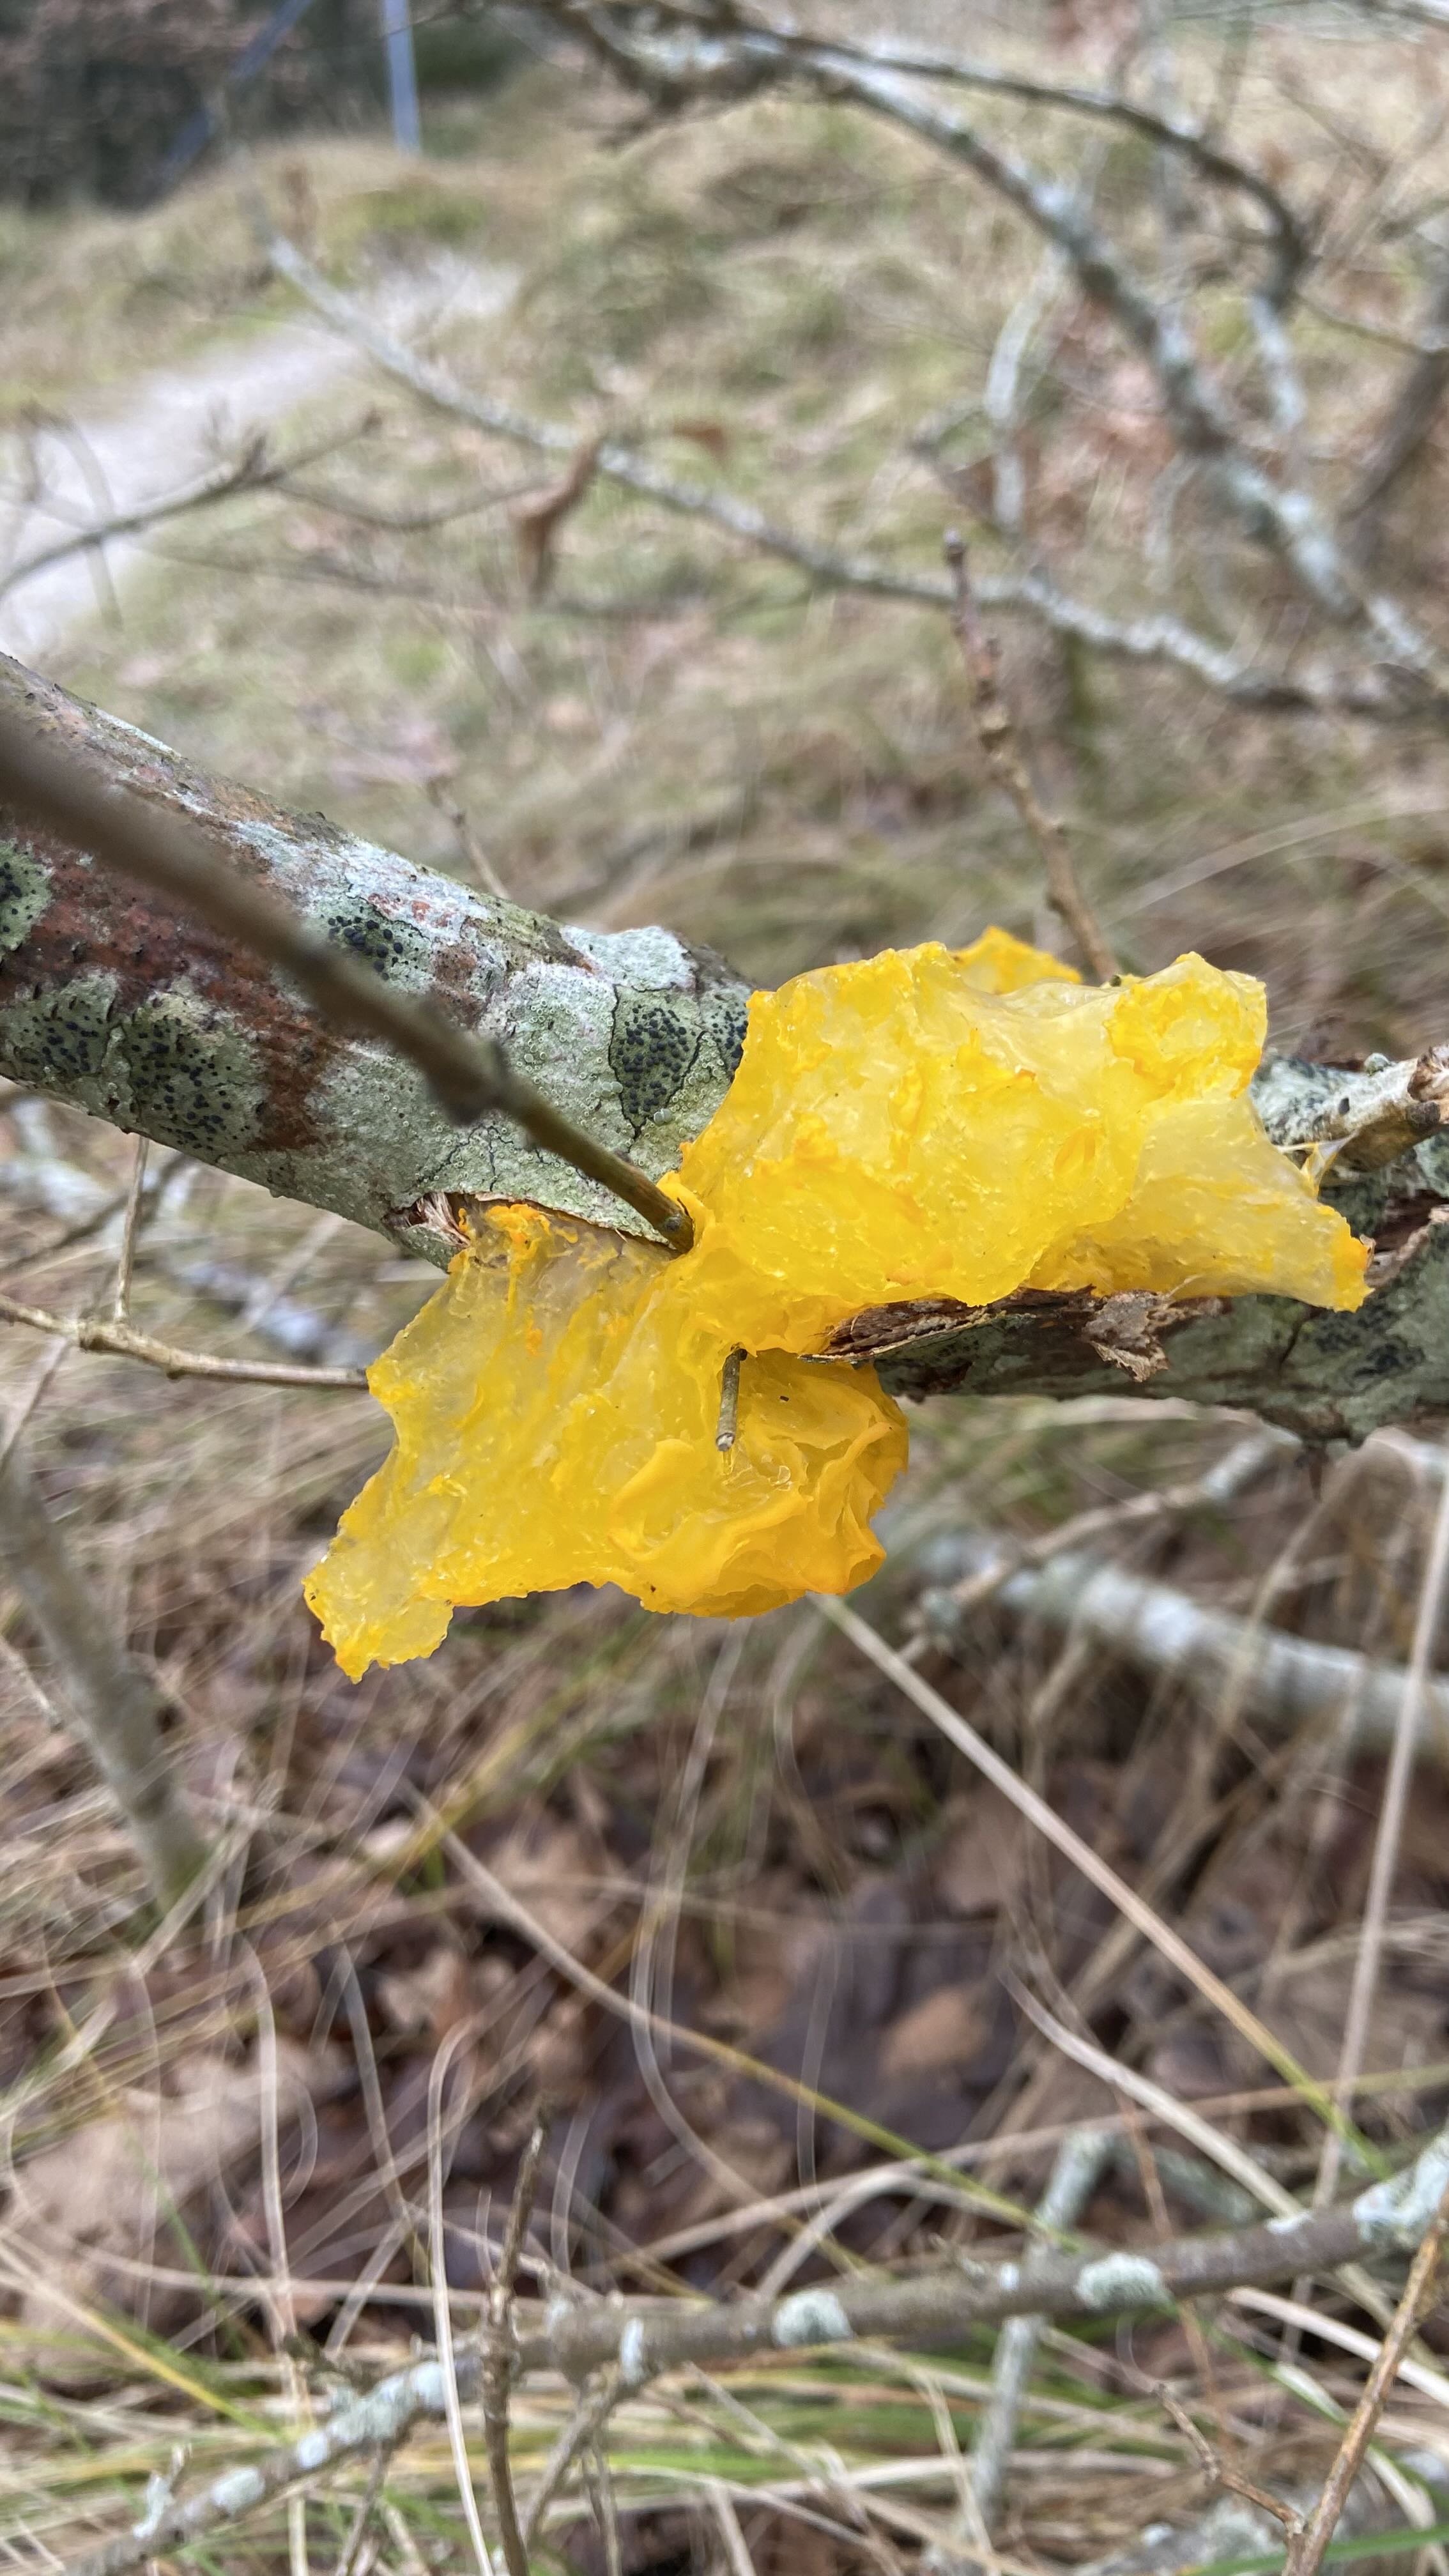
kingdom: Fungi
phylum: Basidiomycota
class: Tremellomycetes
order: Tremellales
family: Tremellaceae
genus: Tremella
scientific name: Tremella mesenterica
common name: gul bævresvamp
